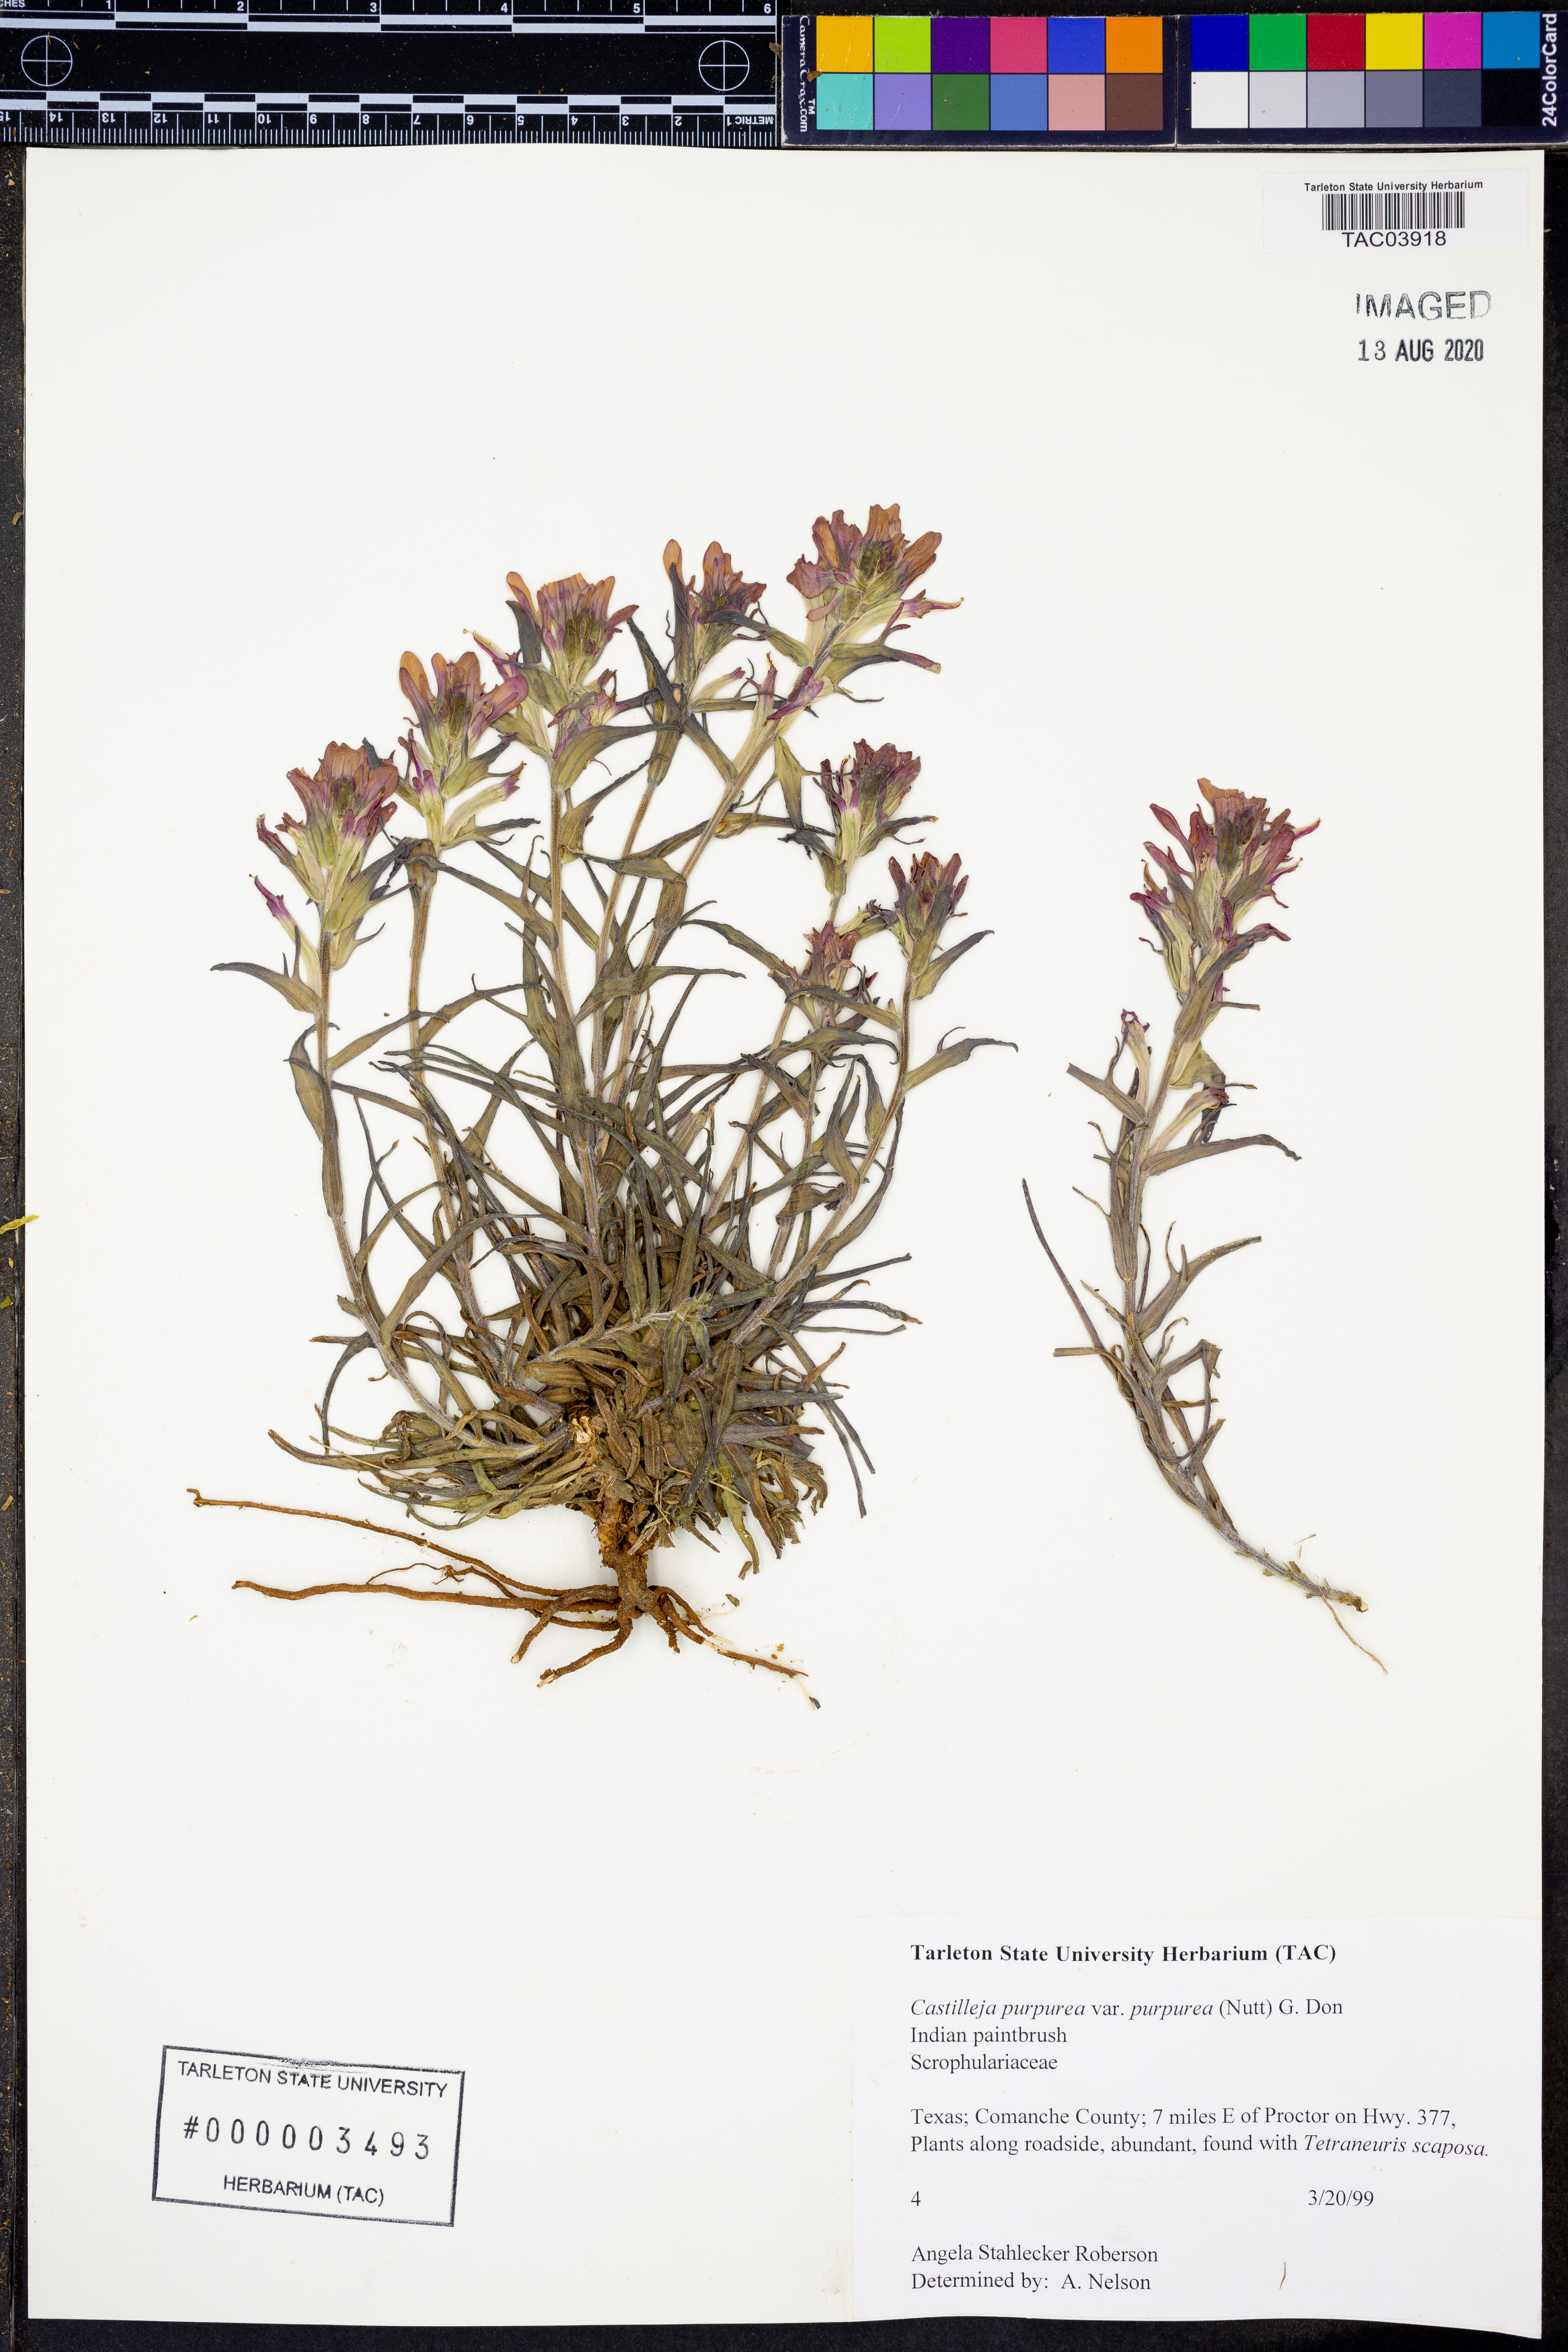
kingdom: Plantae
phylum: Tracheophyta
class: Magnoliopsida
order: Lamiales
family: Orobanchaceae
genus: Castilleja
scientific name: Castilleja purpurea
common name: Plains paintbrush
